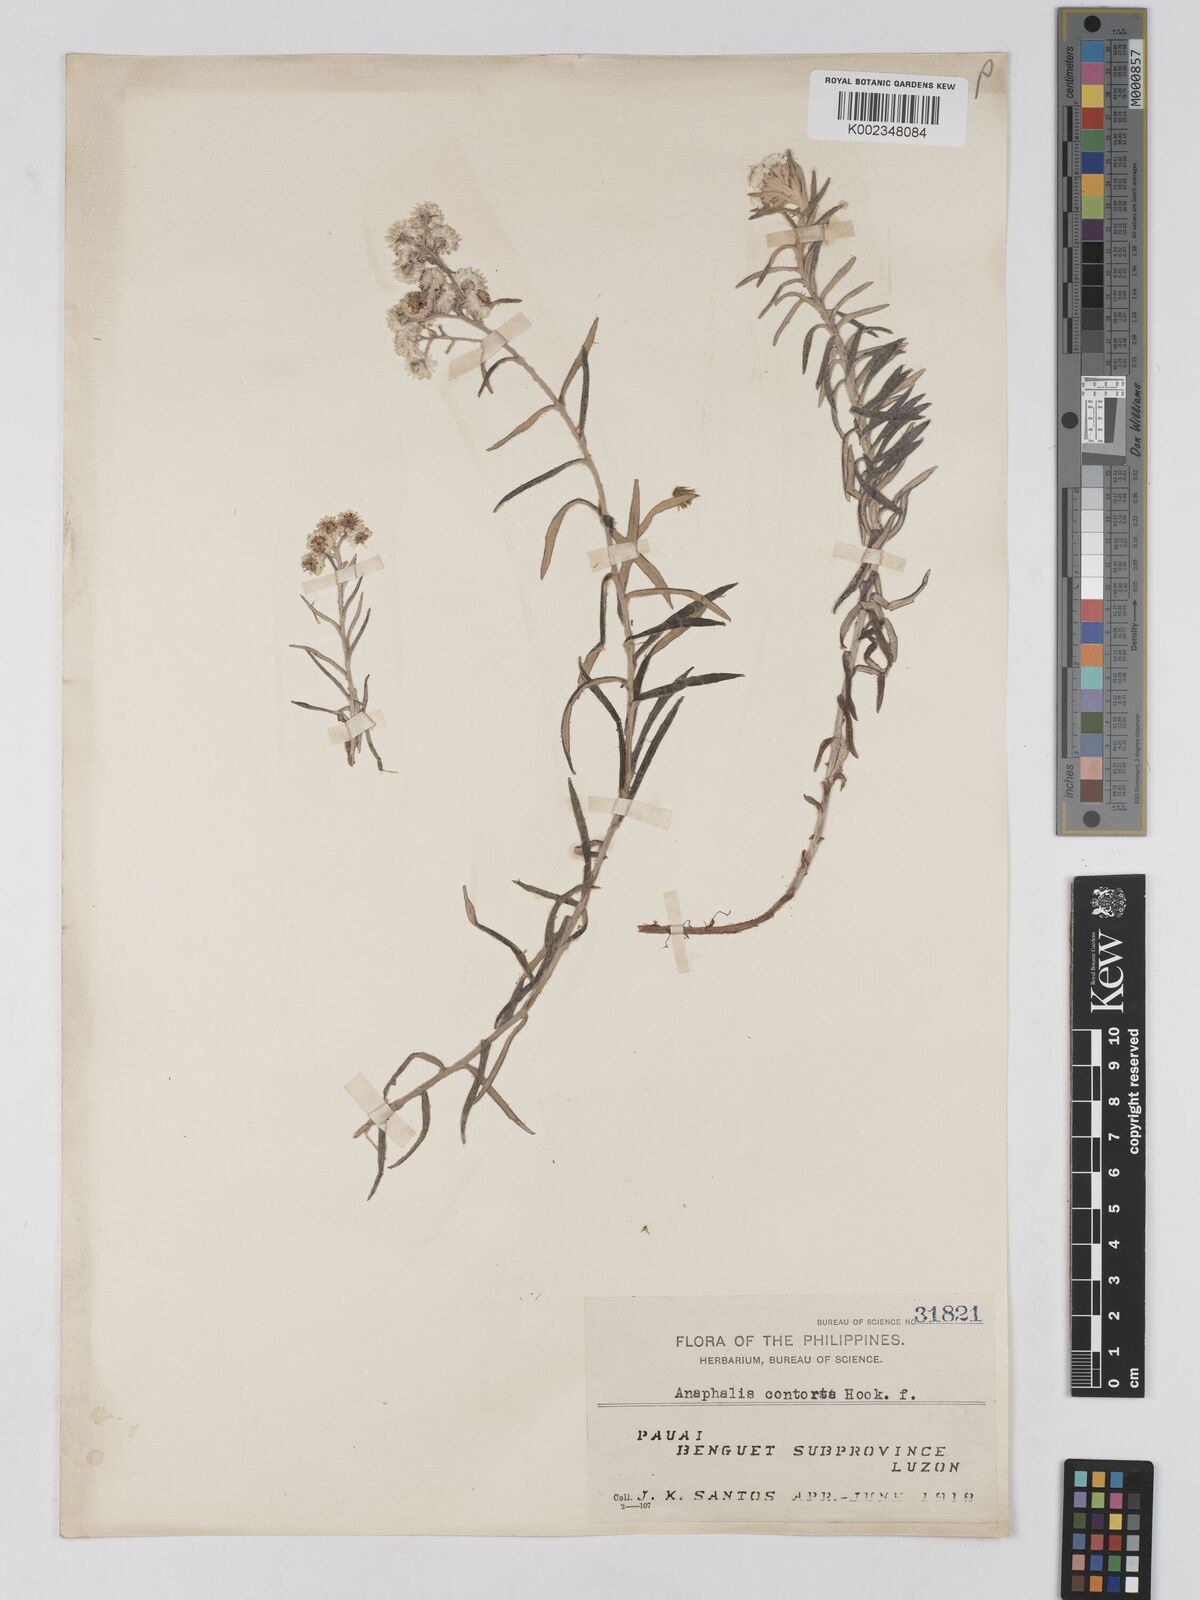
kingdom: Plantae
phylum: Tracheophyta
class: Magnoliopsida
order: Asterales
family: Asteraceae
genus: Anaphalis
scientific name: Anaphalis contorta
